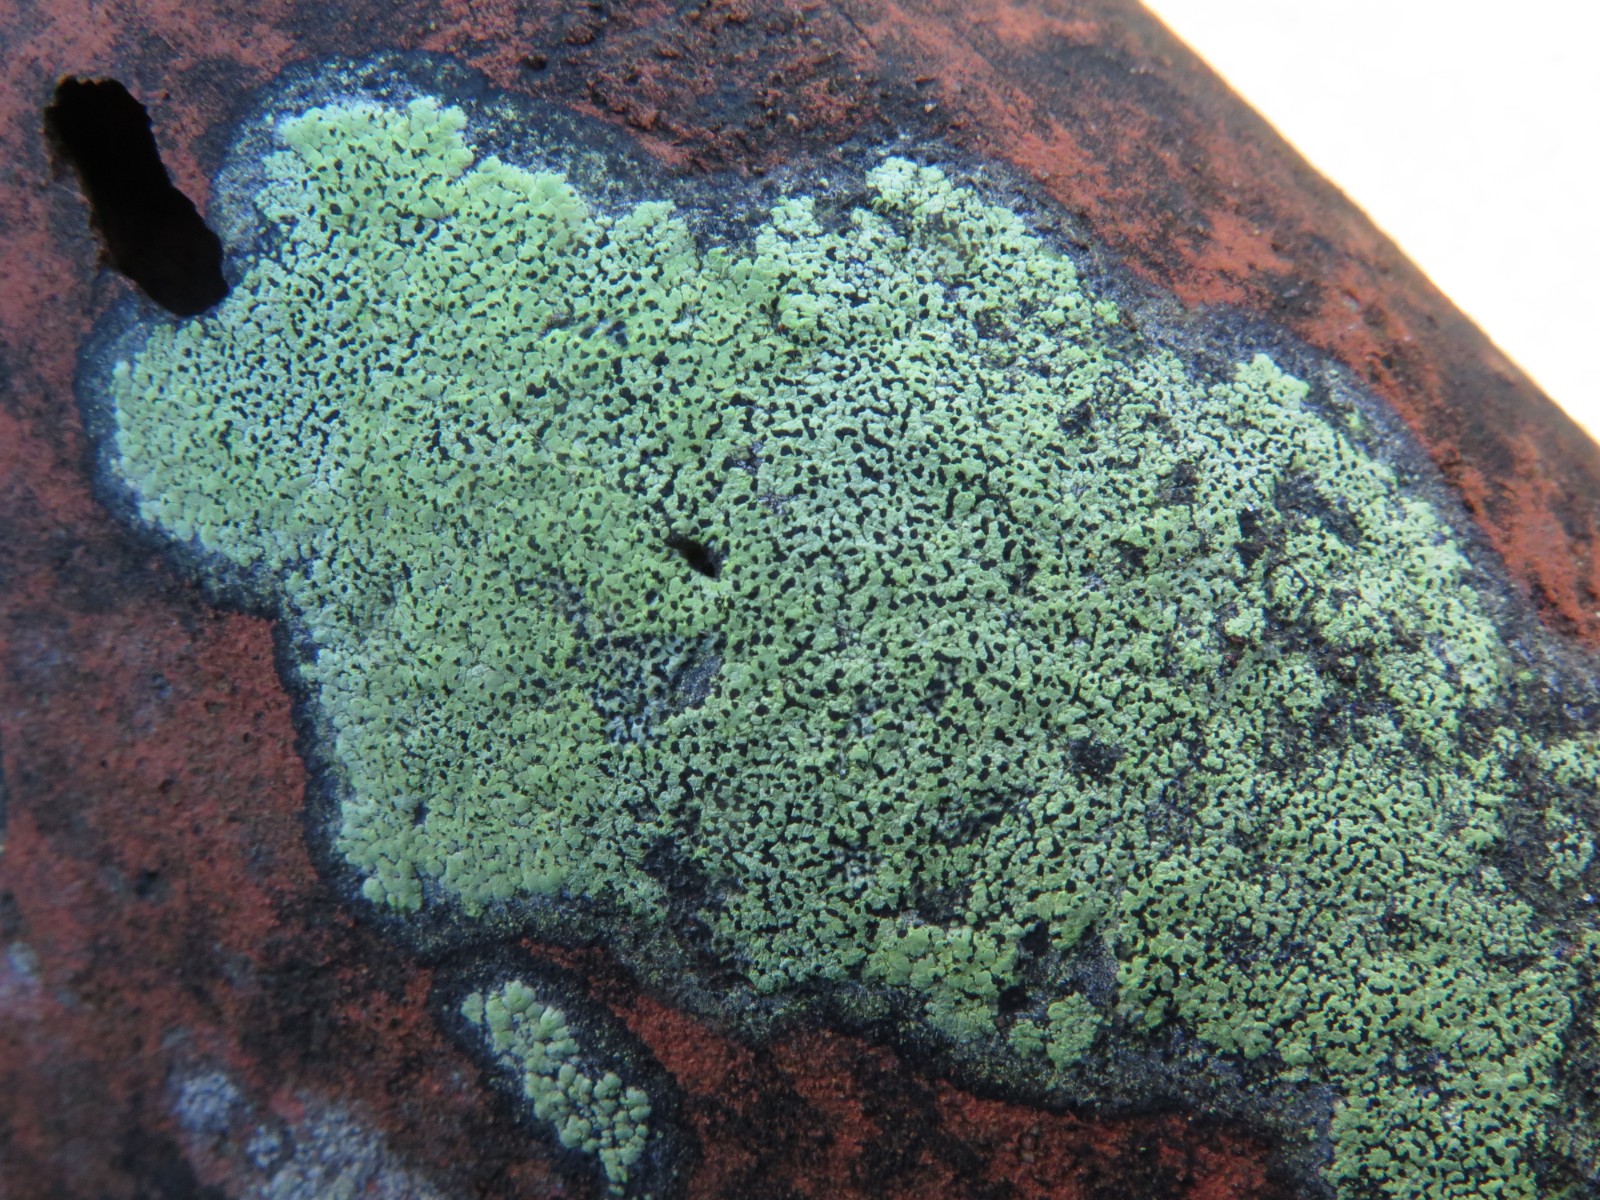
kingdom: Fungi
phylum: Ascomycota
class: Lecanoromycetes
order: Rhizocarpales
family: Rhizocarpaceae
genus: Rhizocarpon
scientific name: Rhizocarpon lecanorinum
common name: krave-landkortlav
